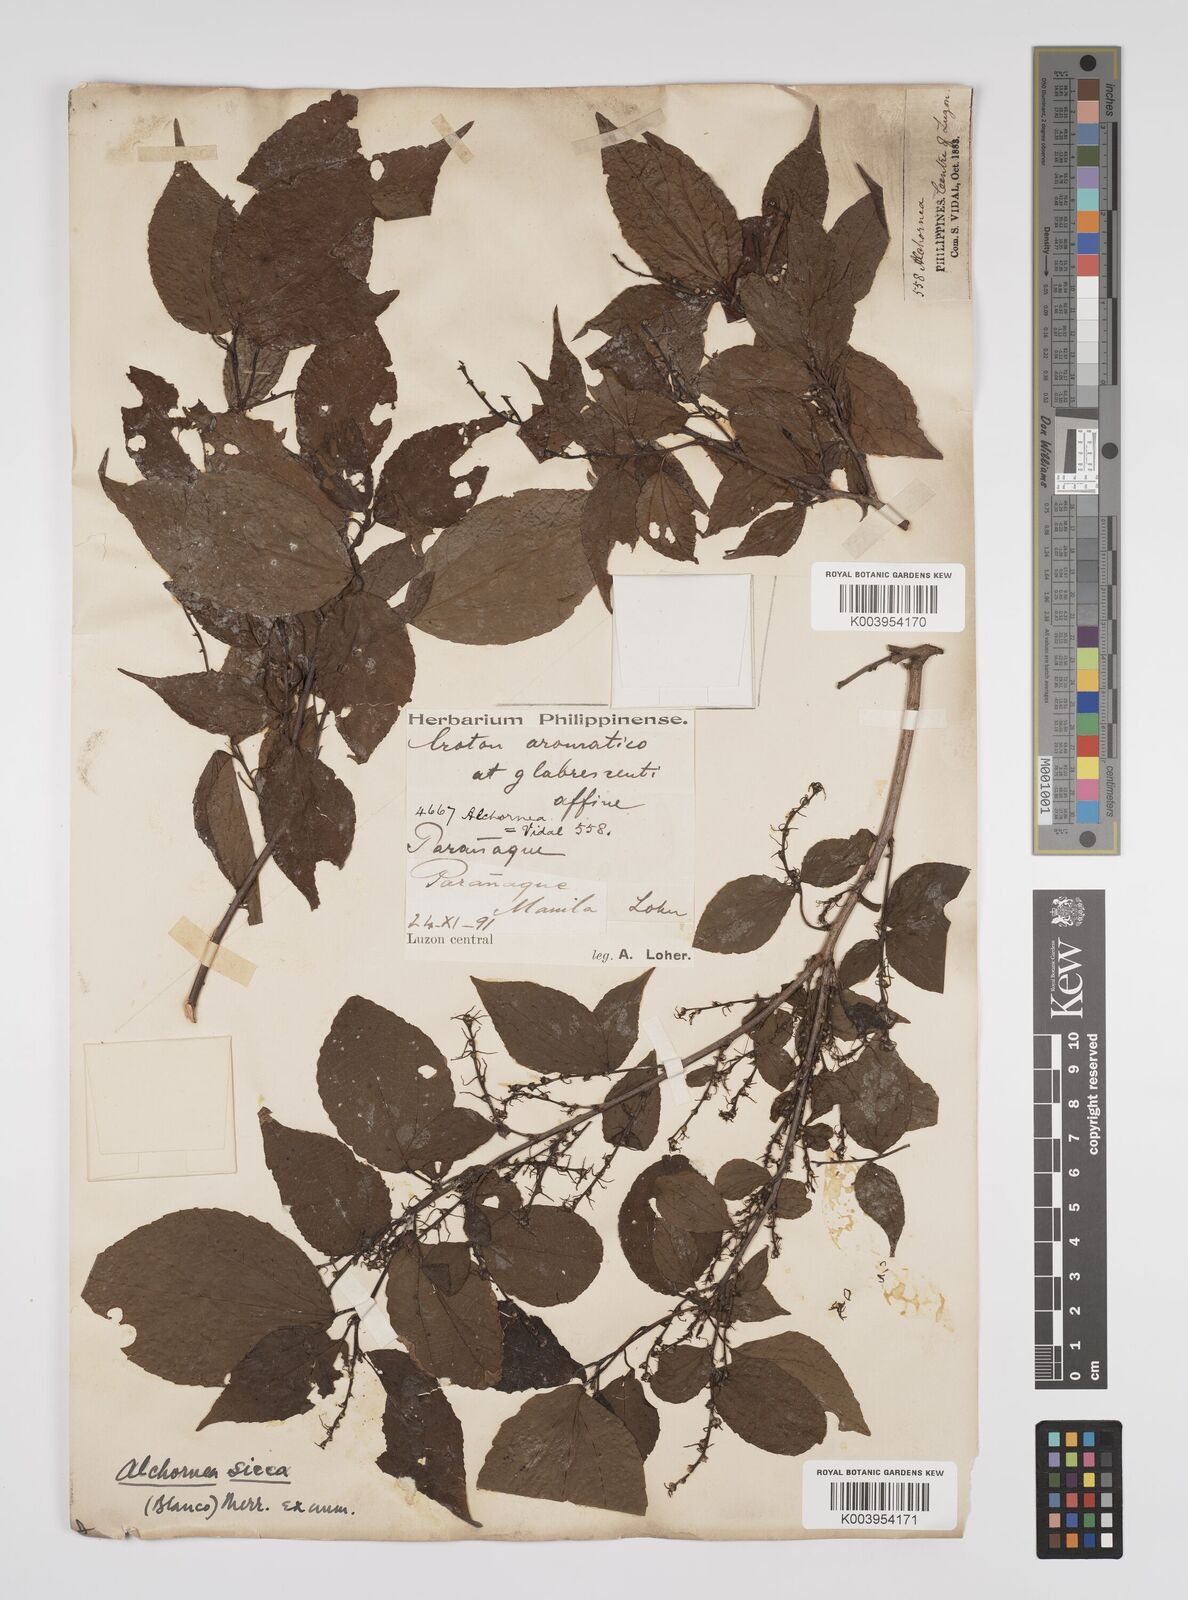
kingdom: Plantae
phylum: Tracheophyta
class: Magnoliopsida
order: Malpighiales
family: Euphorbiaceae
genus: Alchornea
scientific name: Alchornea sicca
